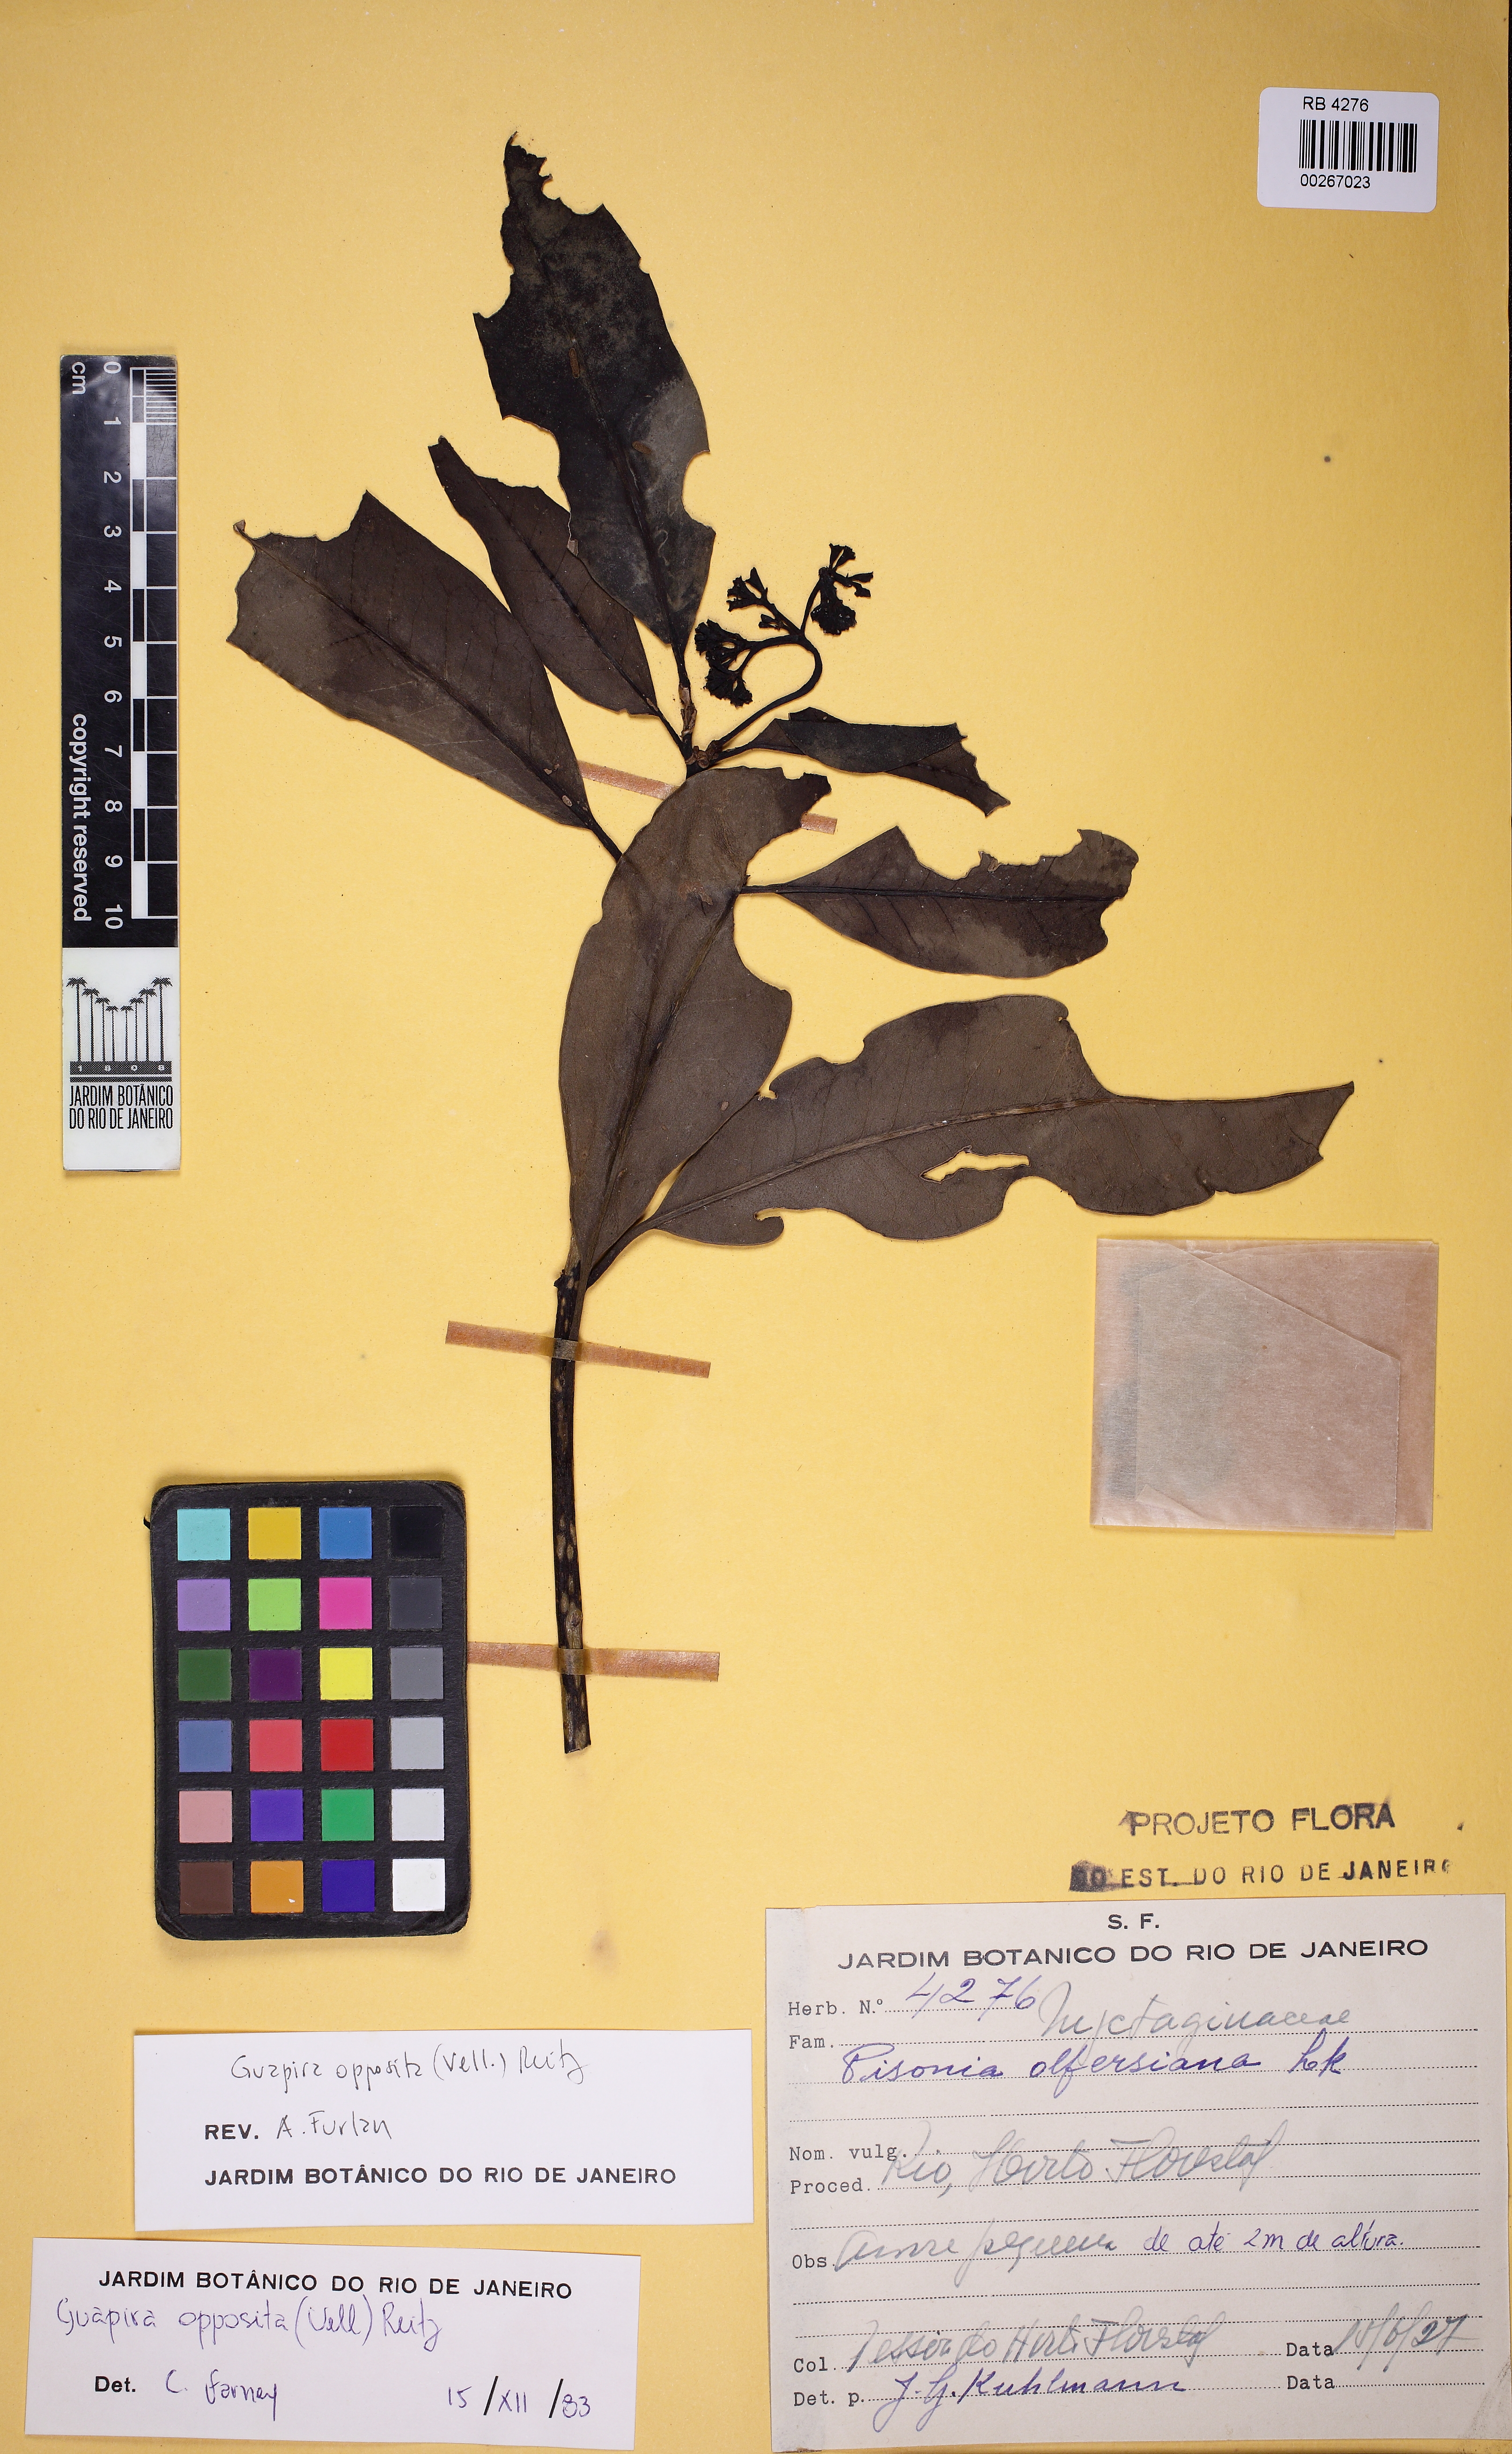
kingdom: Plantae
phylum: Tracheophyta
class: Magnoliopsida
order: Caryophyllales
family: Nyctaginaceae
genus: Guapira
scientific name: Guapira opposita
